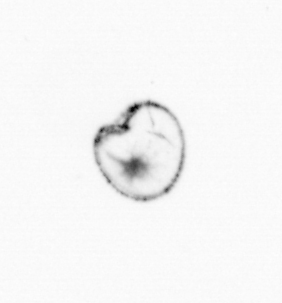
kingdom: Chromista
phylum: Myzozoa
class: Dinophyceae
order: Noctilucales
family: Noctilucaceae
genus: Noctiluca
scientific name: Noctiluca scintillans
